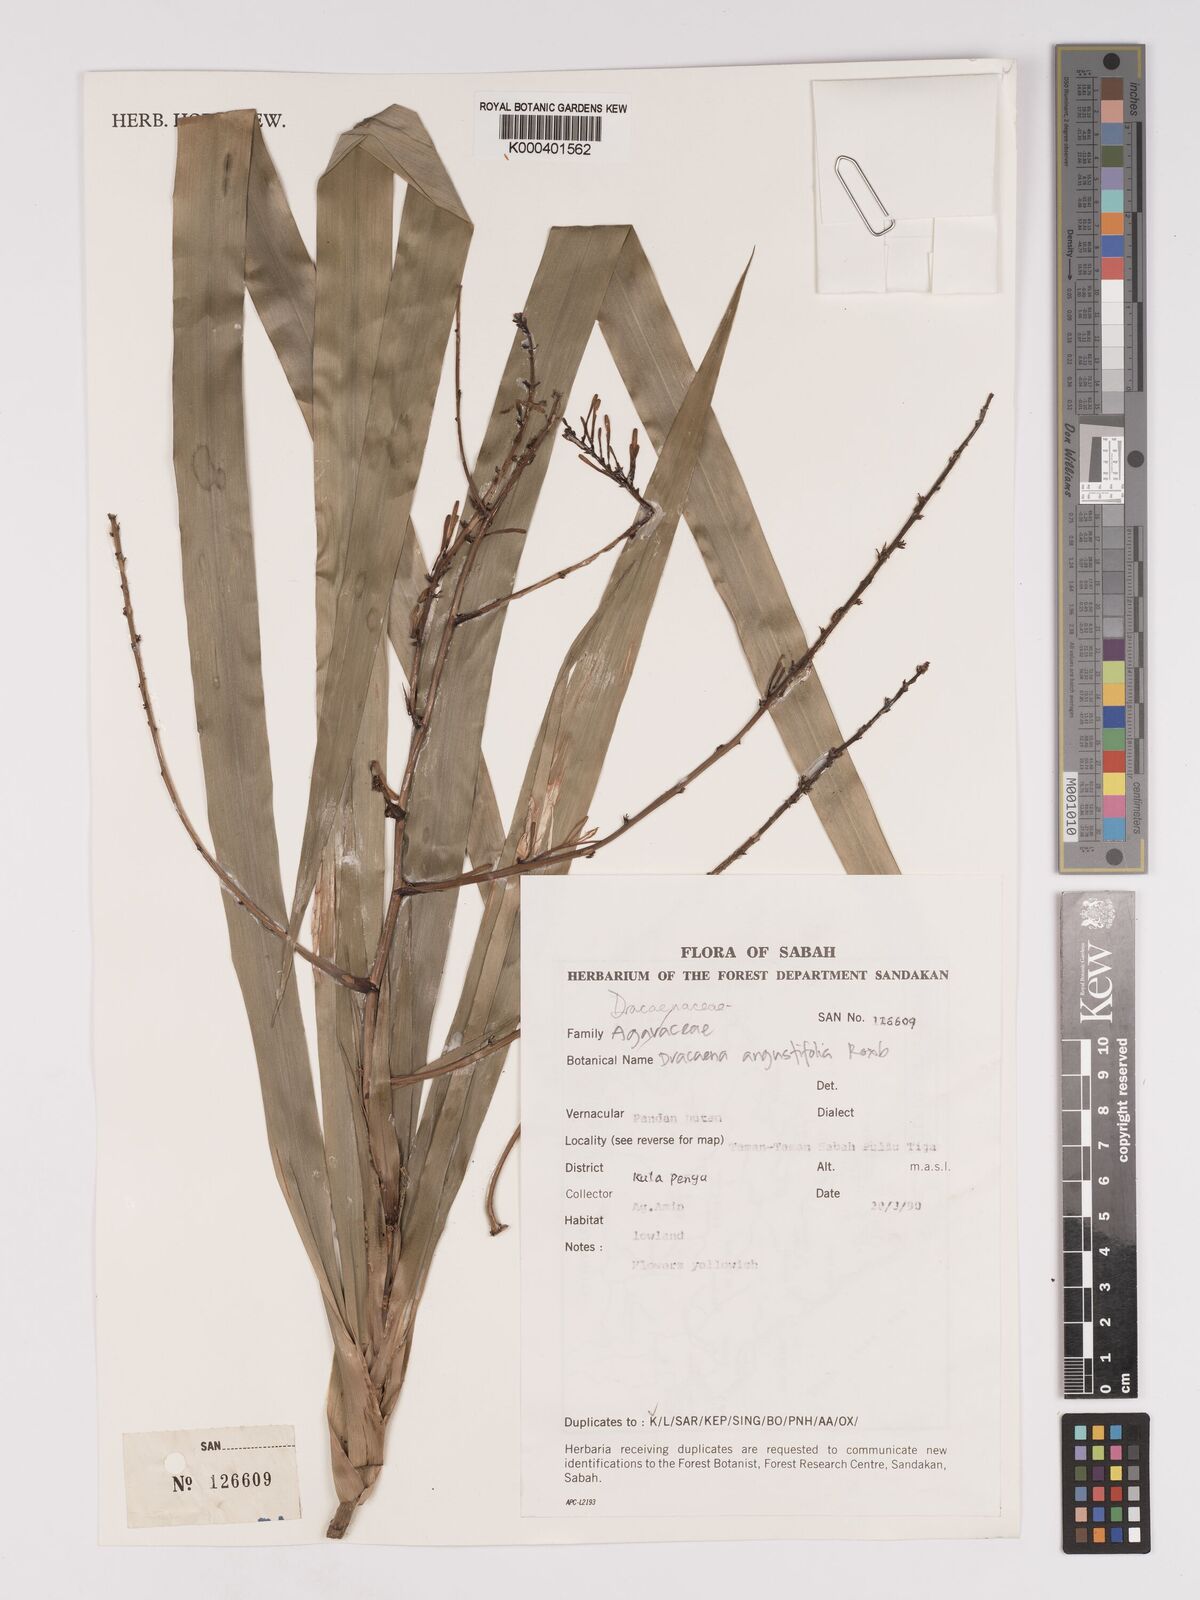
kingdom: Plantae
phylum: Tracheophyta
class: Liliopsida
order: Asparagales
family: Asparagaceae
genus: Dracaena
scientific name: Dracaena angustifolia
